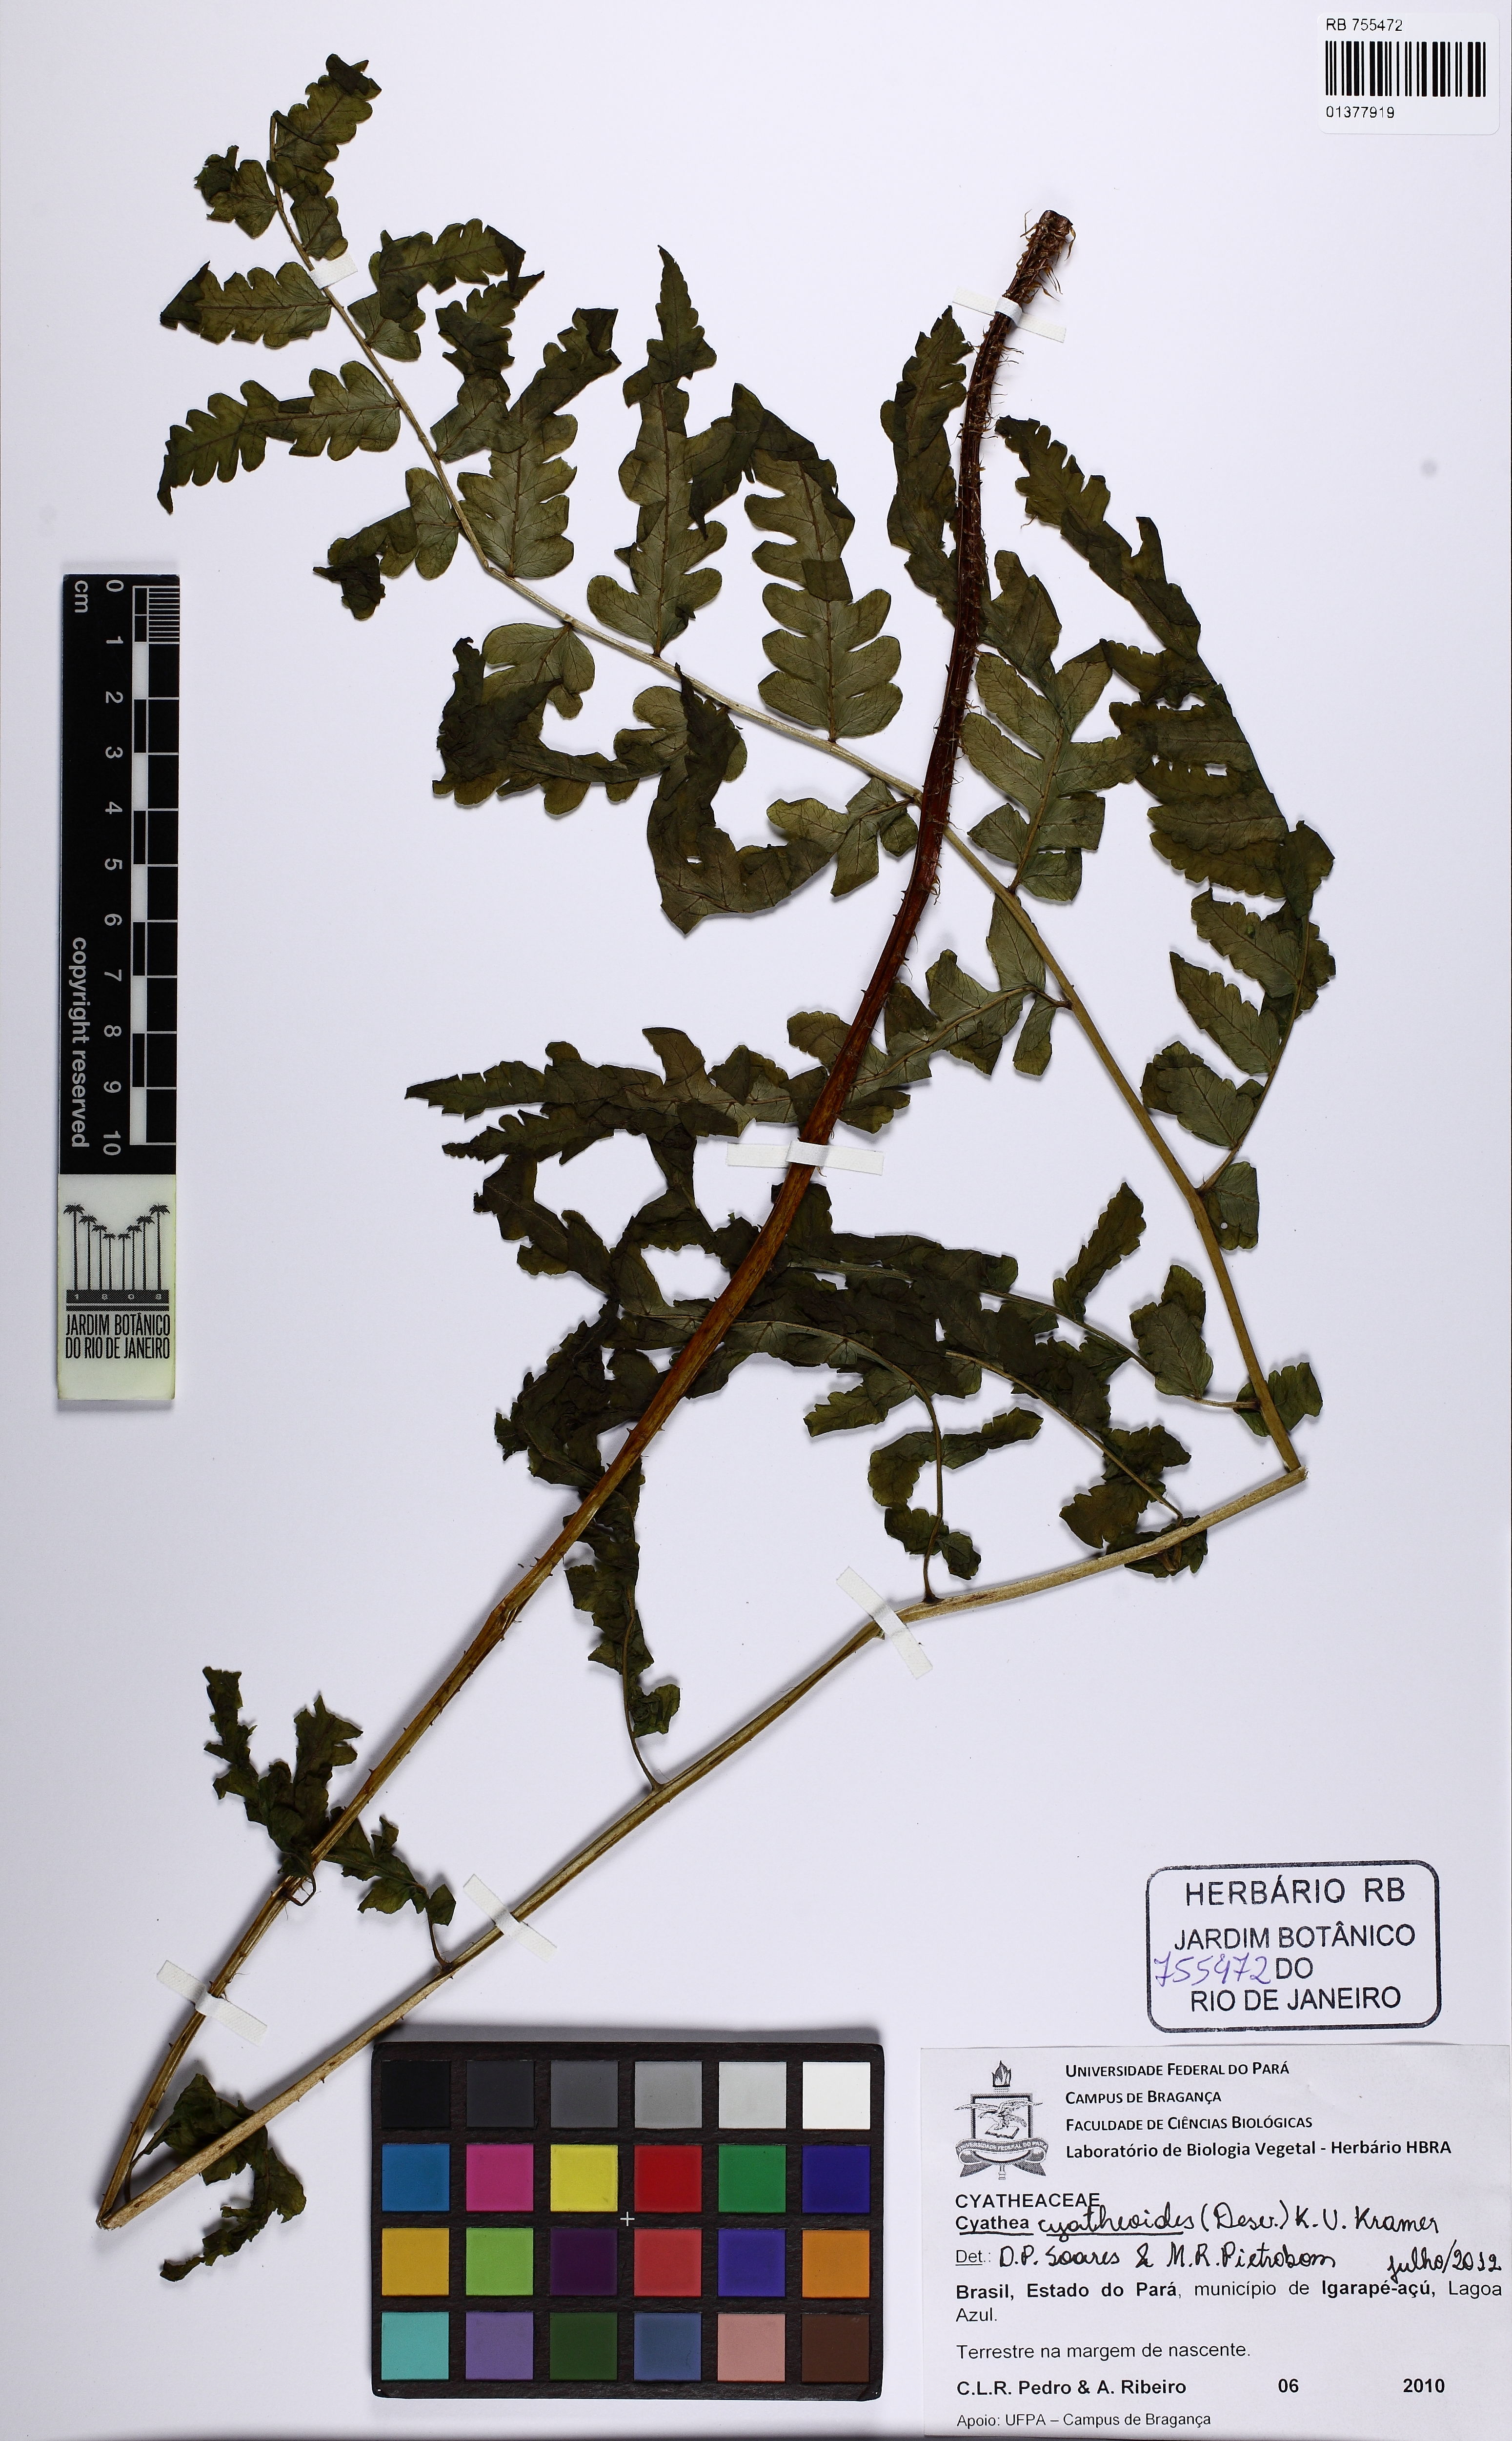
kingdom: Plantae
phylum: Tracheophyta
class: Polypodiopsida
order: Cyatheales
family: Cyatheaceae
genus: Cyathea
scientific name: Cyathea cyatheoides
